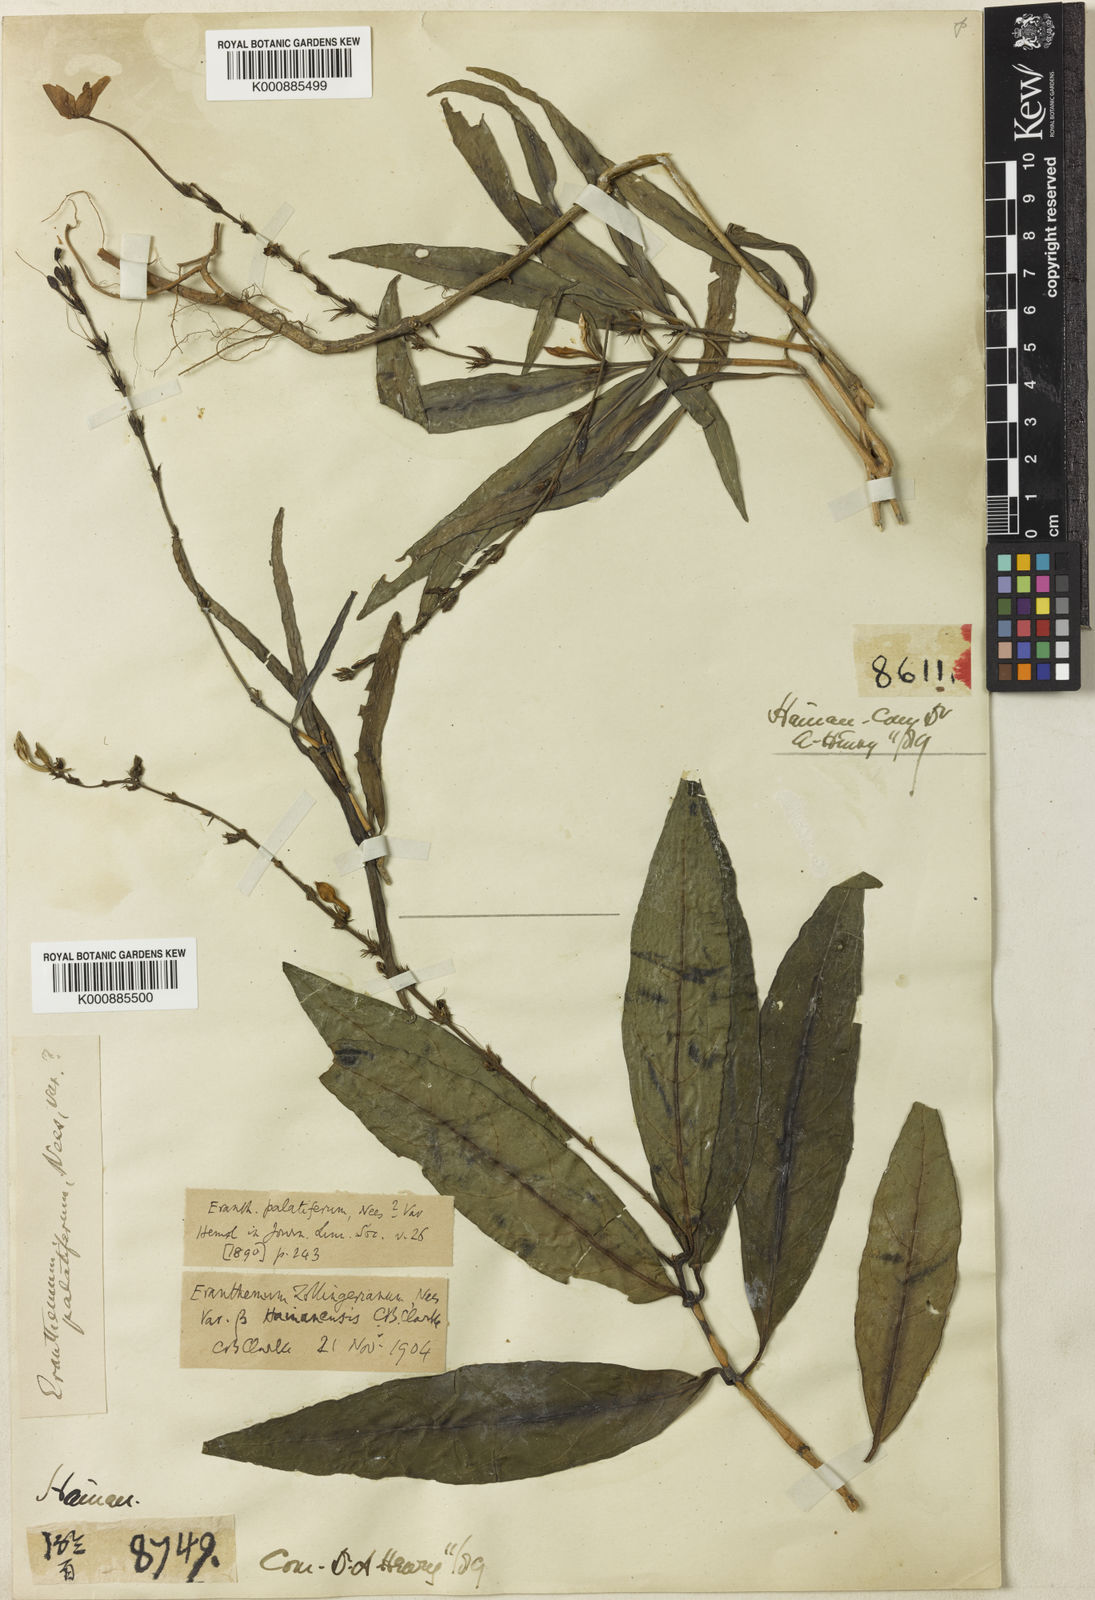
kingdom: Plantae
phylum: Tracheophyta
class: Magnoliopsida
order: Lamiales
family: Acanthaceae
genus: Pseuderanthemum
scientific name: Pseuderanthemum
